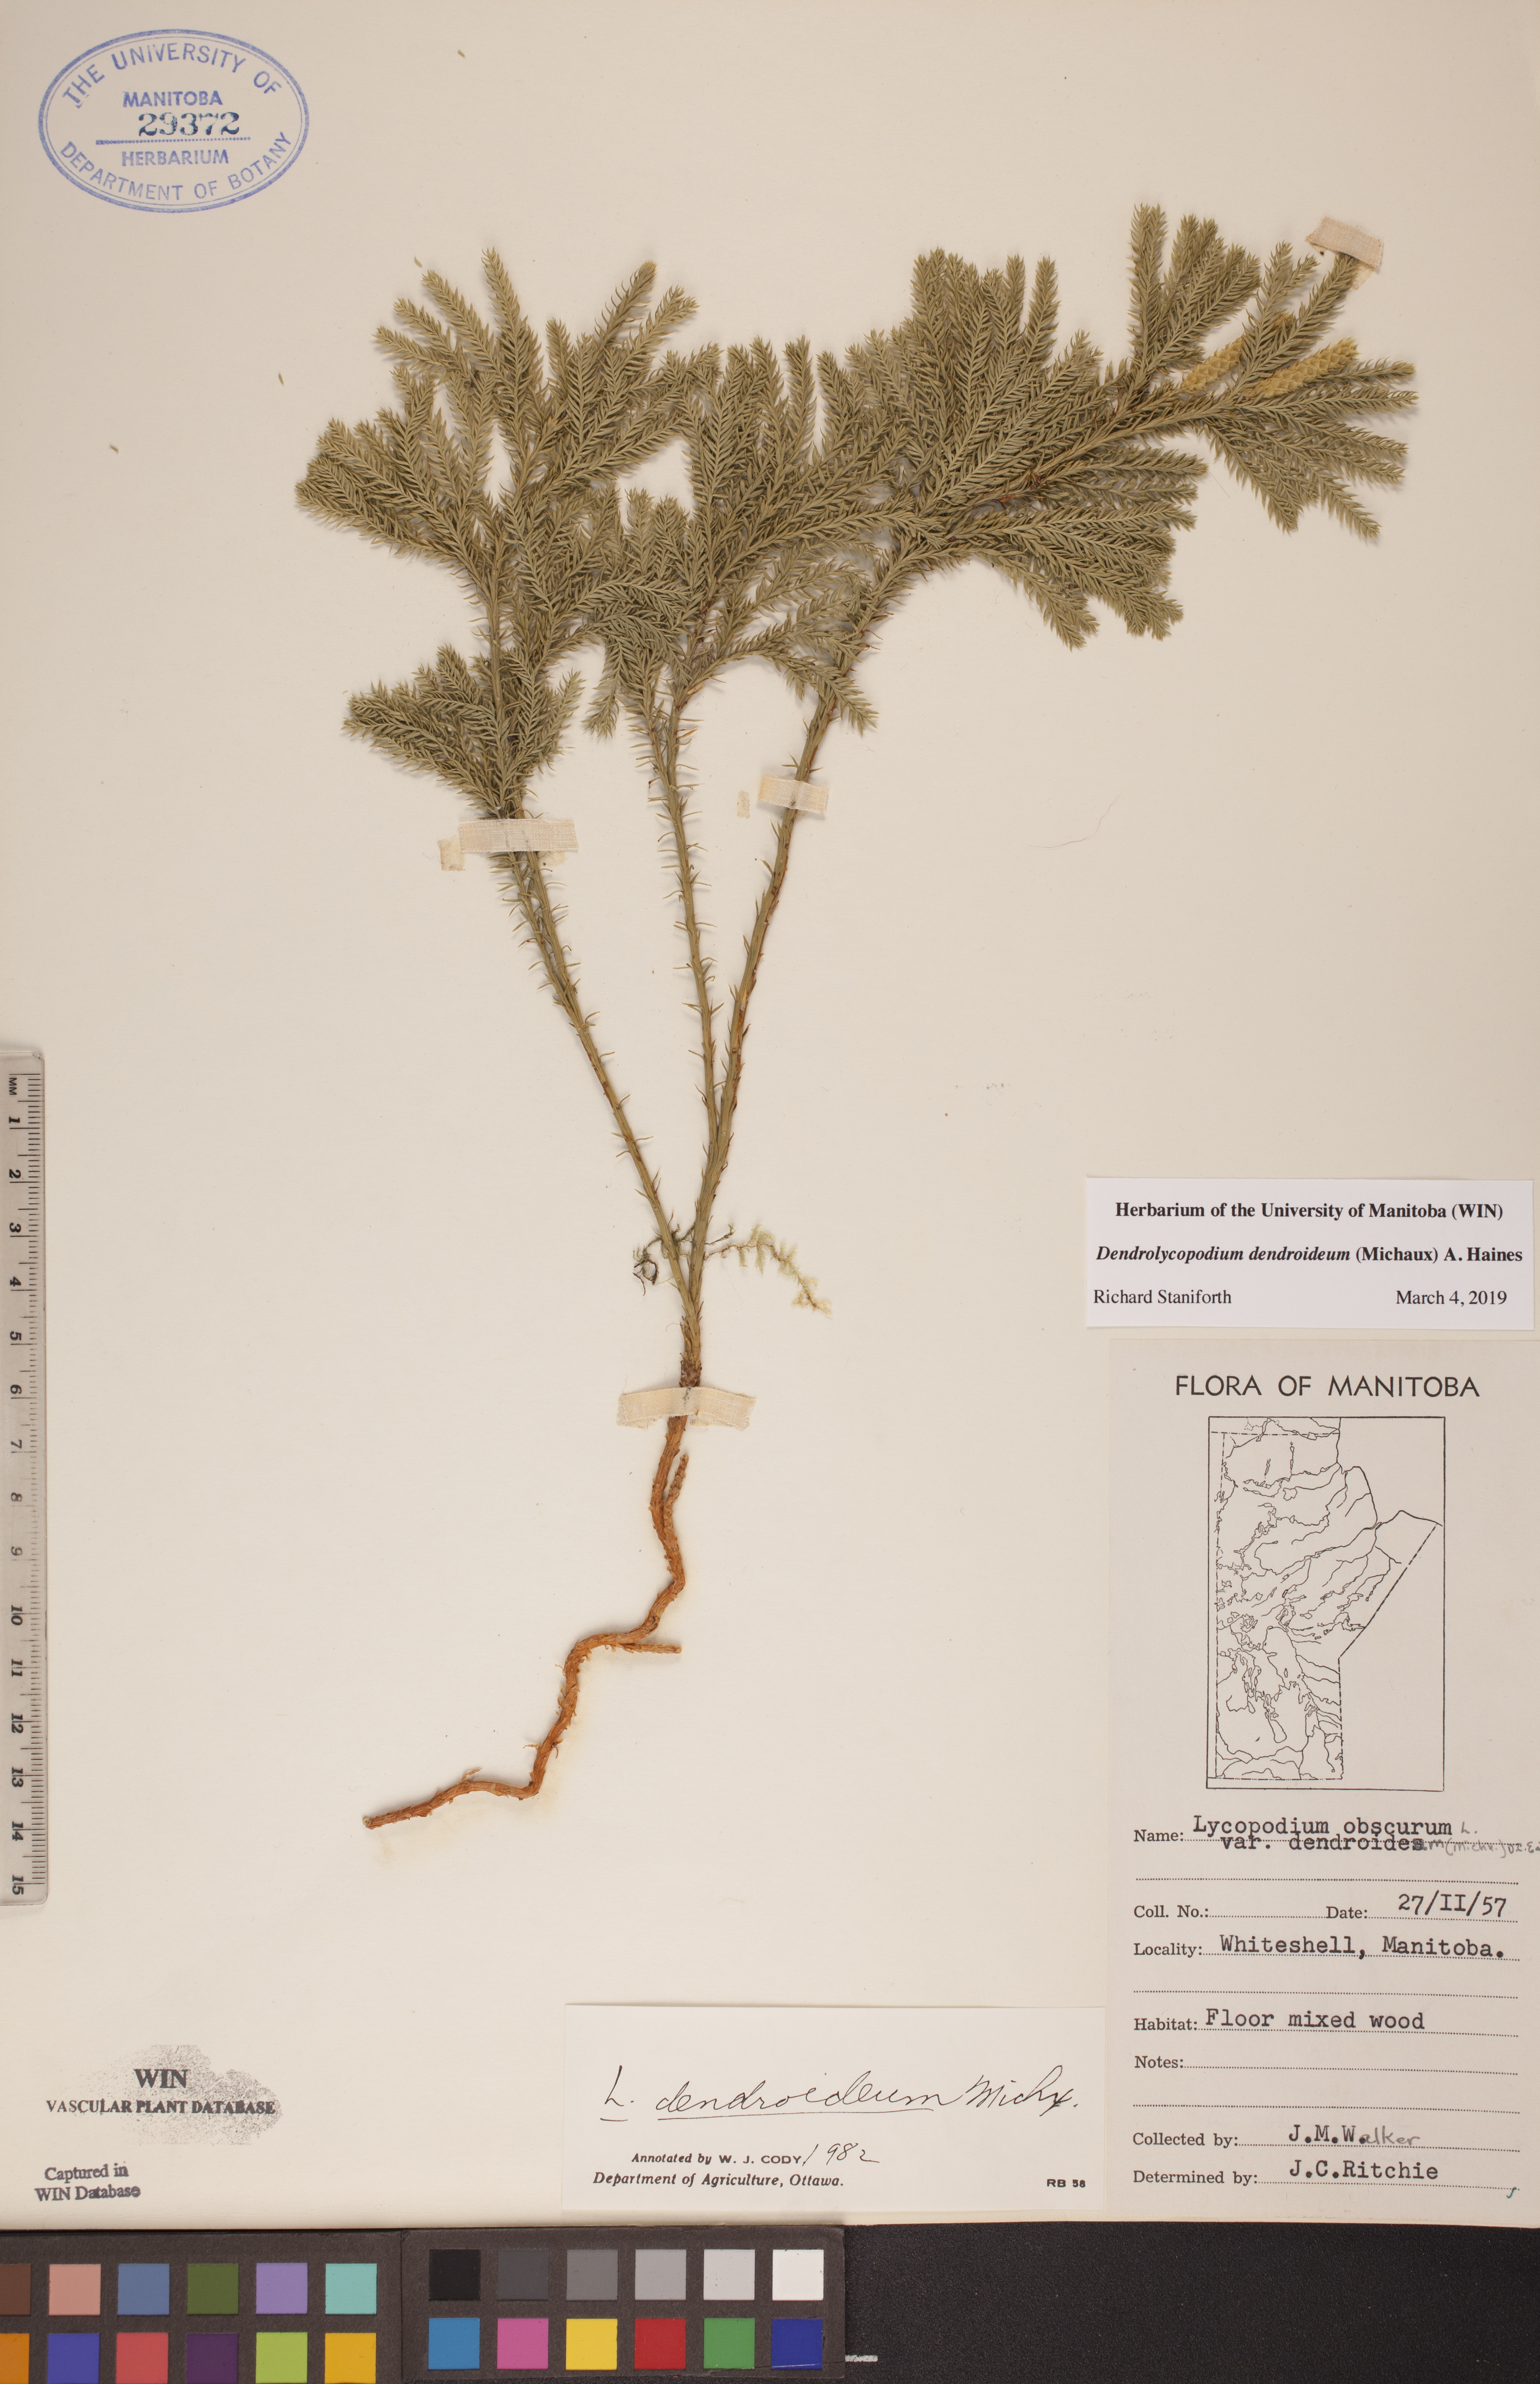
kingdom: Plantae
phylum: Tracheophyta
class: Lycopodiopsida
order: Lycopodiales
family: Lycopodiaceae
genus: Dendrolycopodium
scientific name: Dendrolycopodium dendroideum
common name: Northern tree-clubmoss
